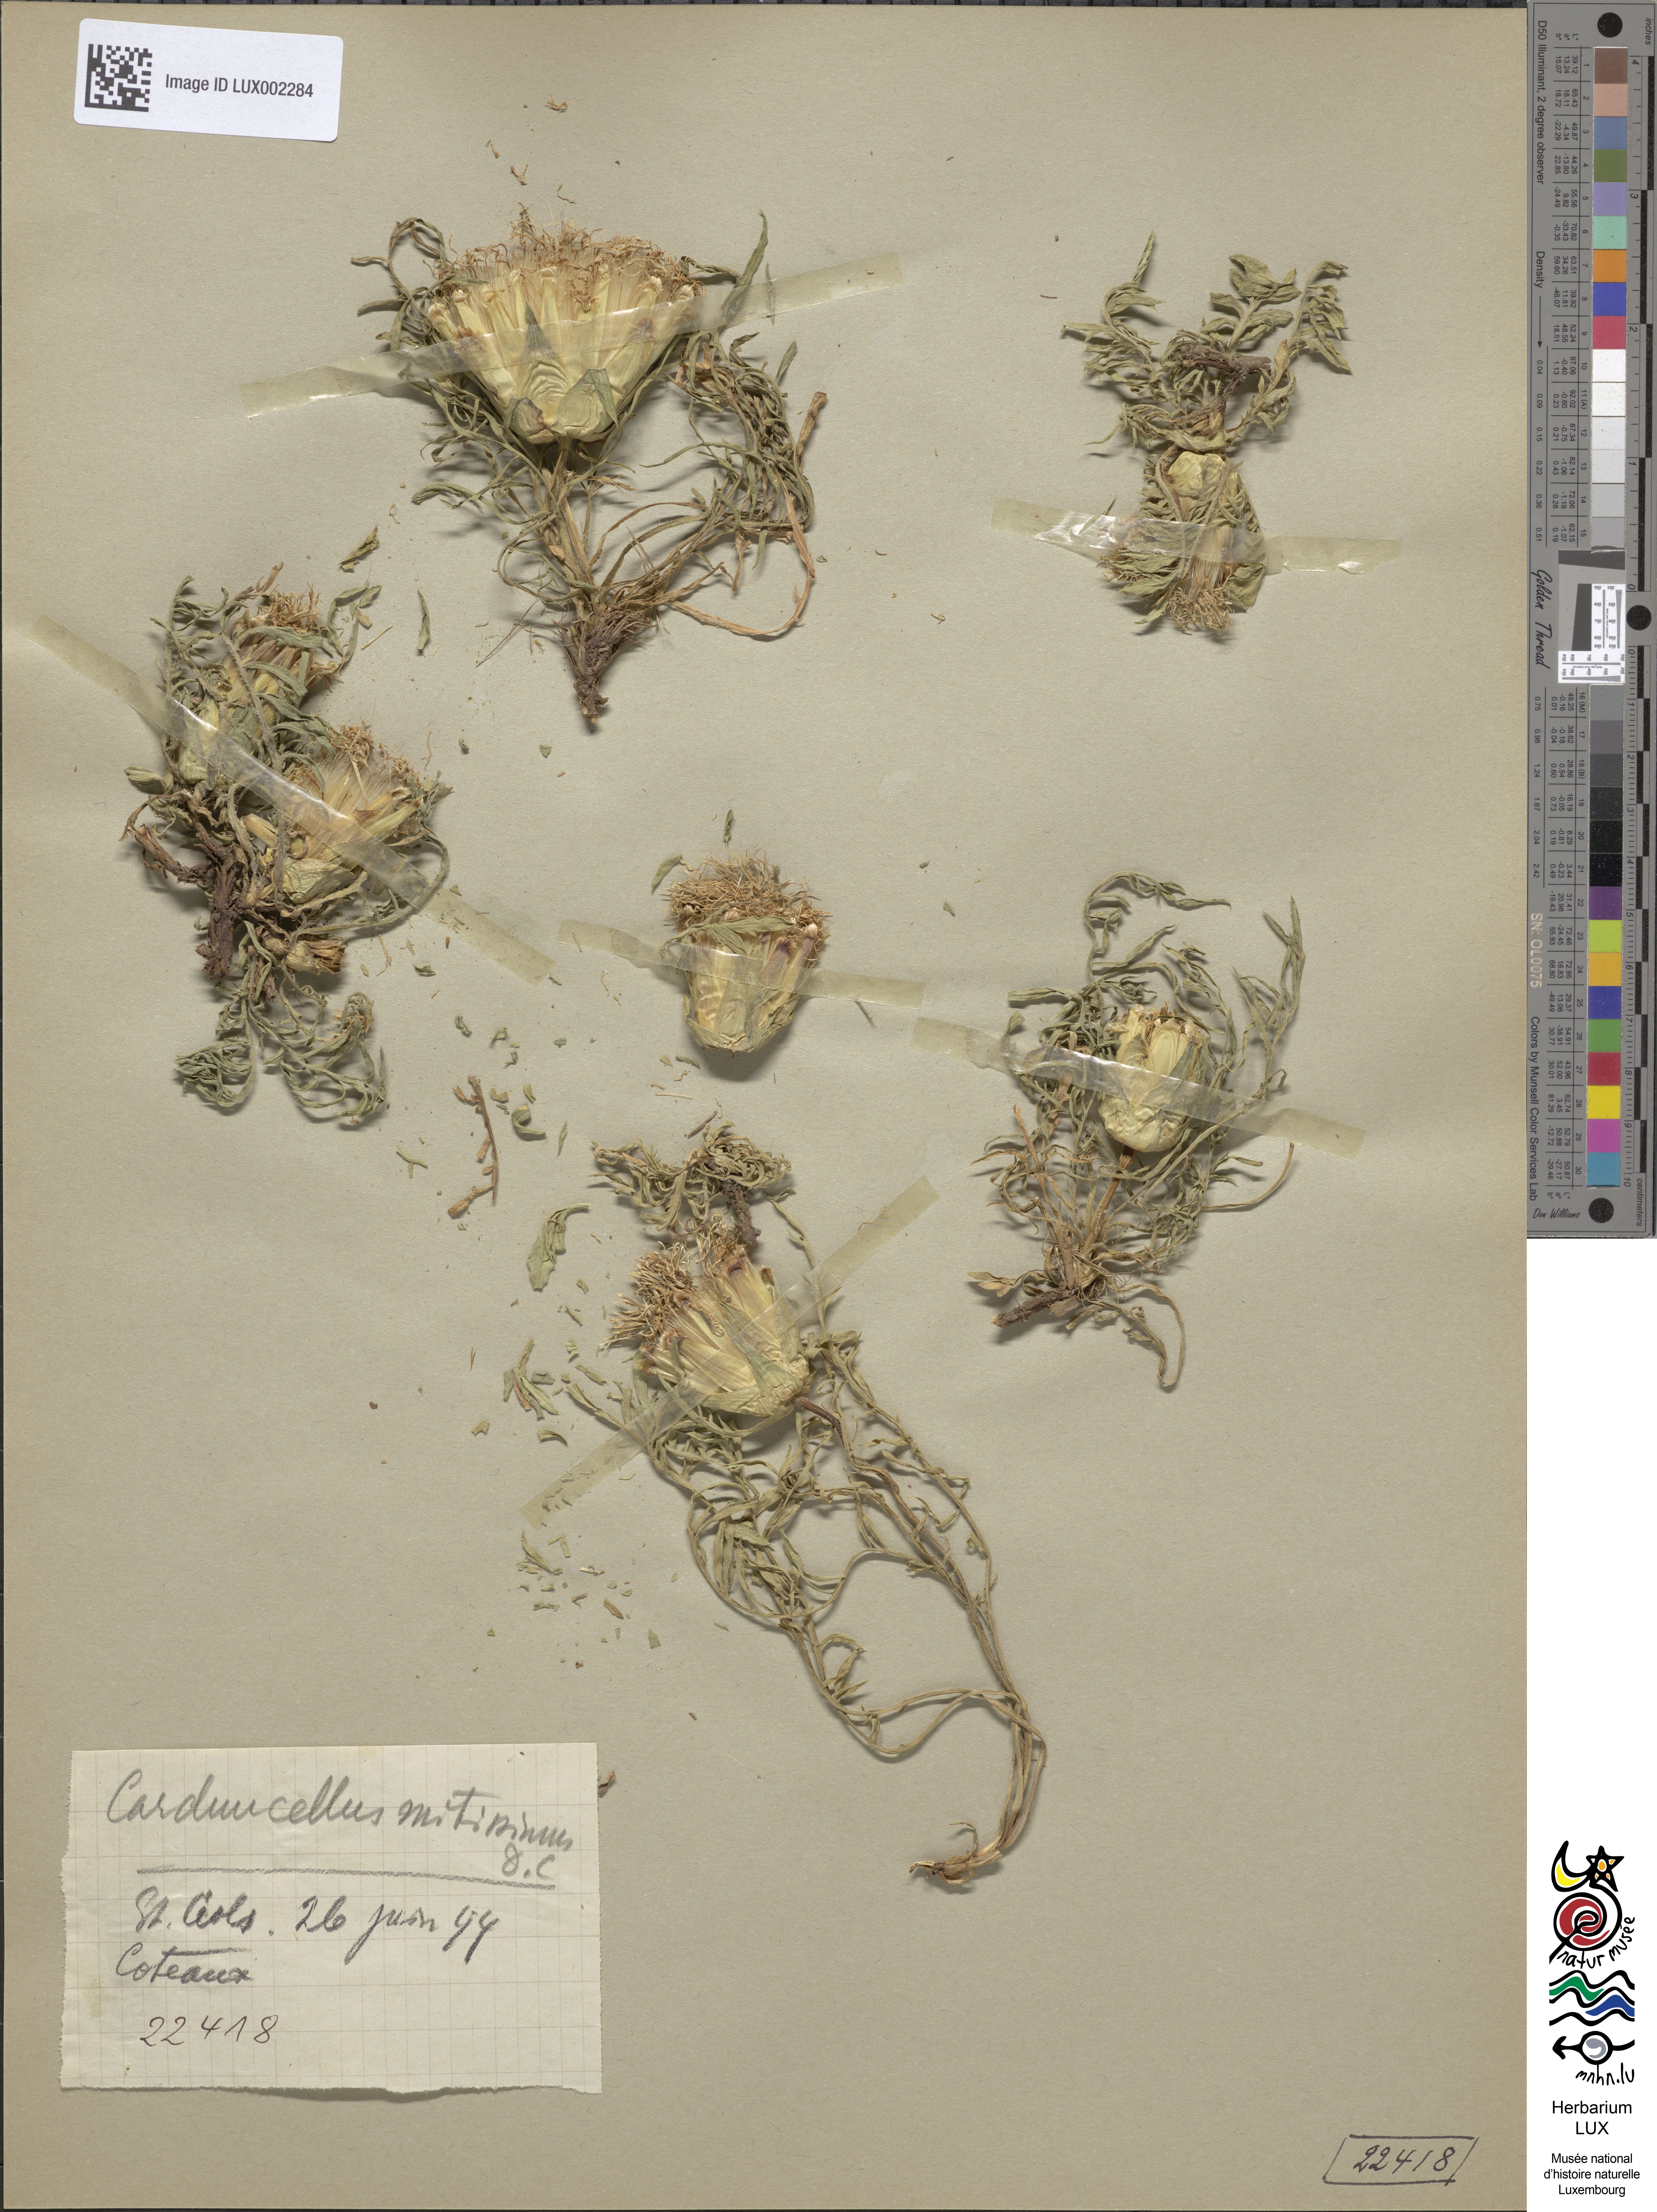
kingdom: Plantae
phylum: Tracheophyta
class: Magnoliopsida
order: Asterales
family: Asteraceae
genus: Carduncellus
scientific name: Carduncellus mitissimus
